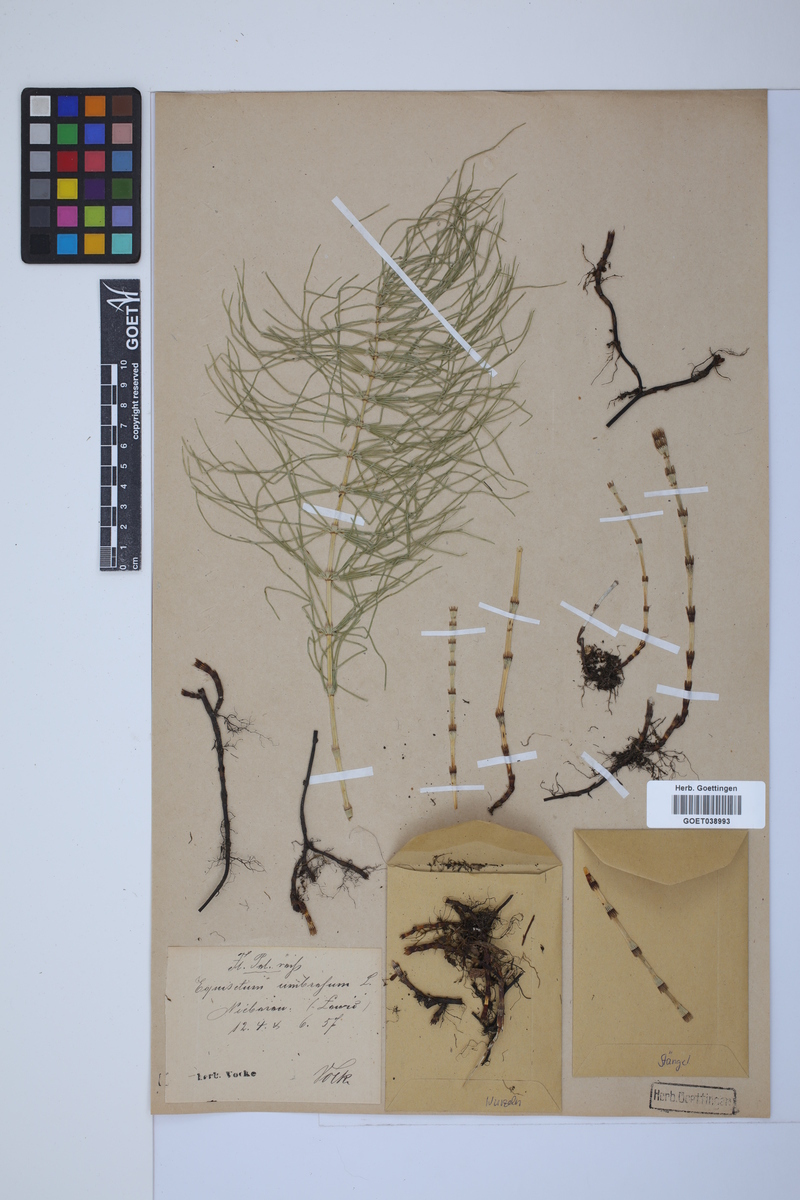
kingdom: Plantae
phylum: Tracheophyta
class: Polypodiopsida
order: Equisetales
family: Equisetaceae
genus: Equisetum
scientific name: Equisetum pratense
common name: Meadow horsetail
